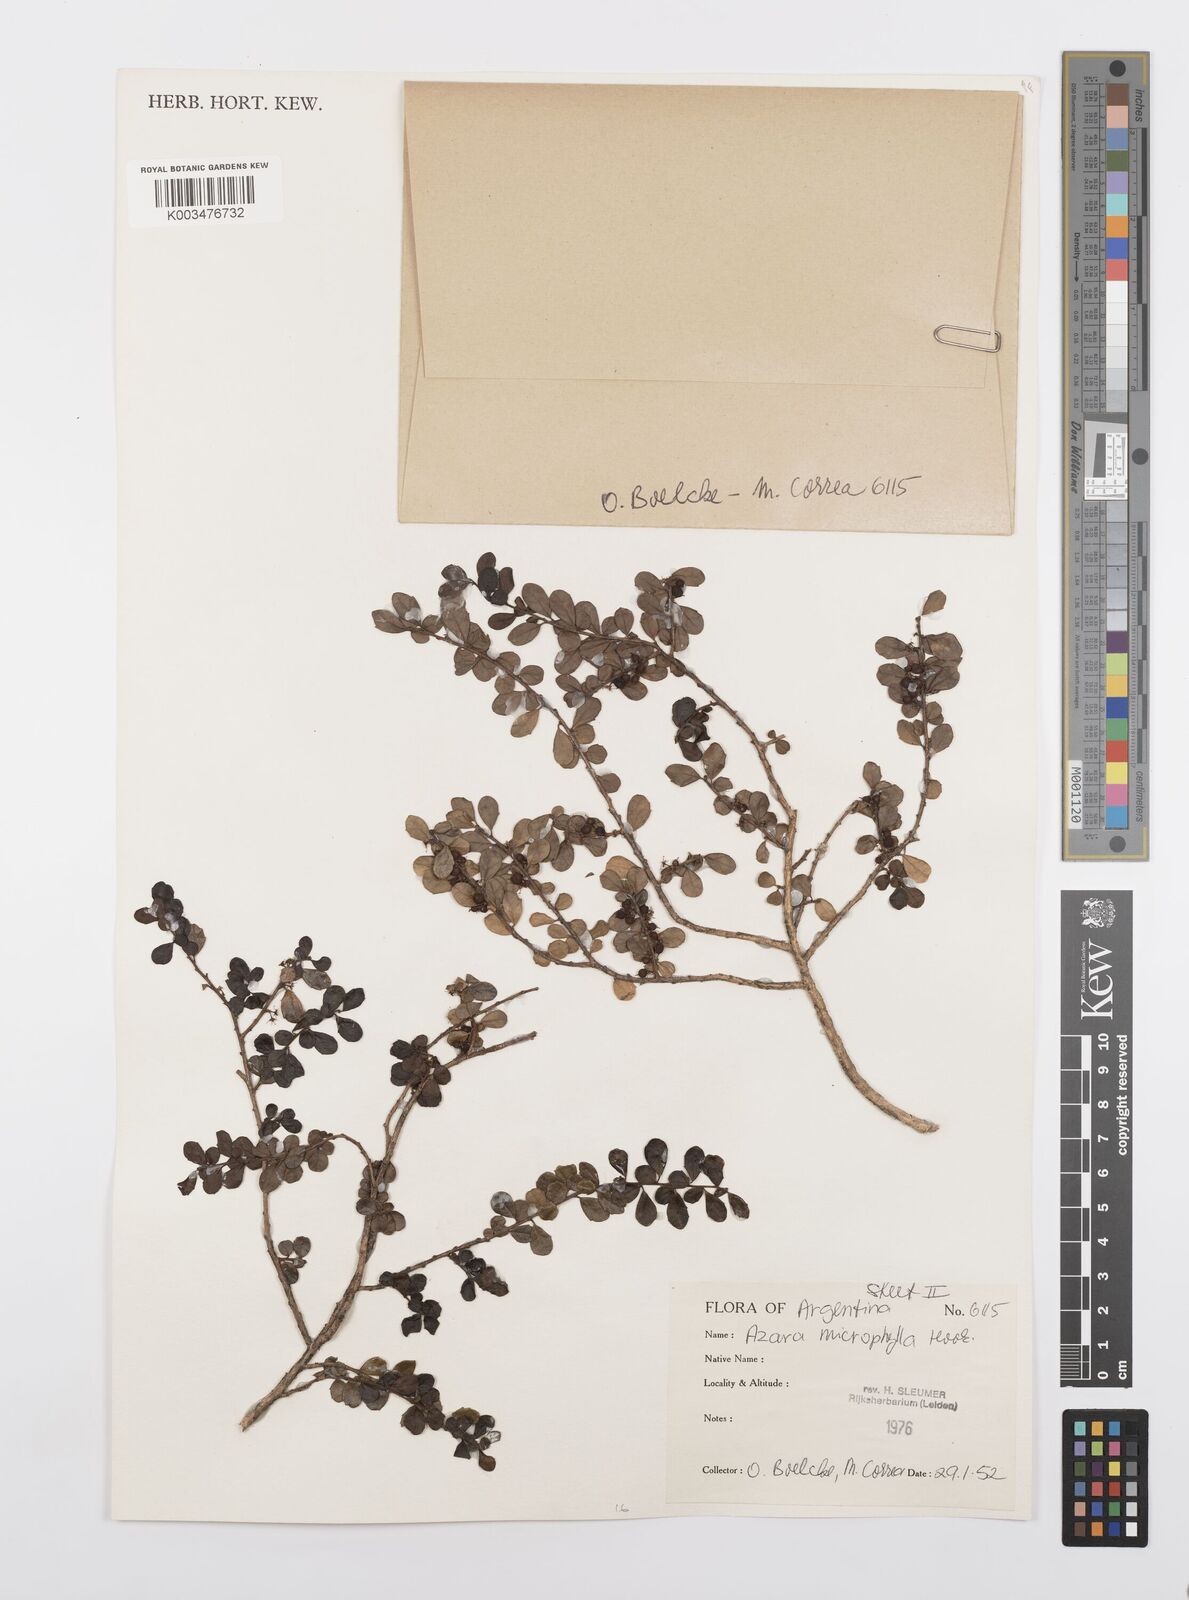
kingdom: Plantae
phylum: Tracheophyta
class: Magnoliopsida
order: Malpighiales
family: Salicaceae
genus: Azara
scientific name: Azara microphylla
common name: Box-leaf azara
